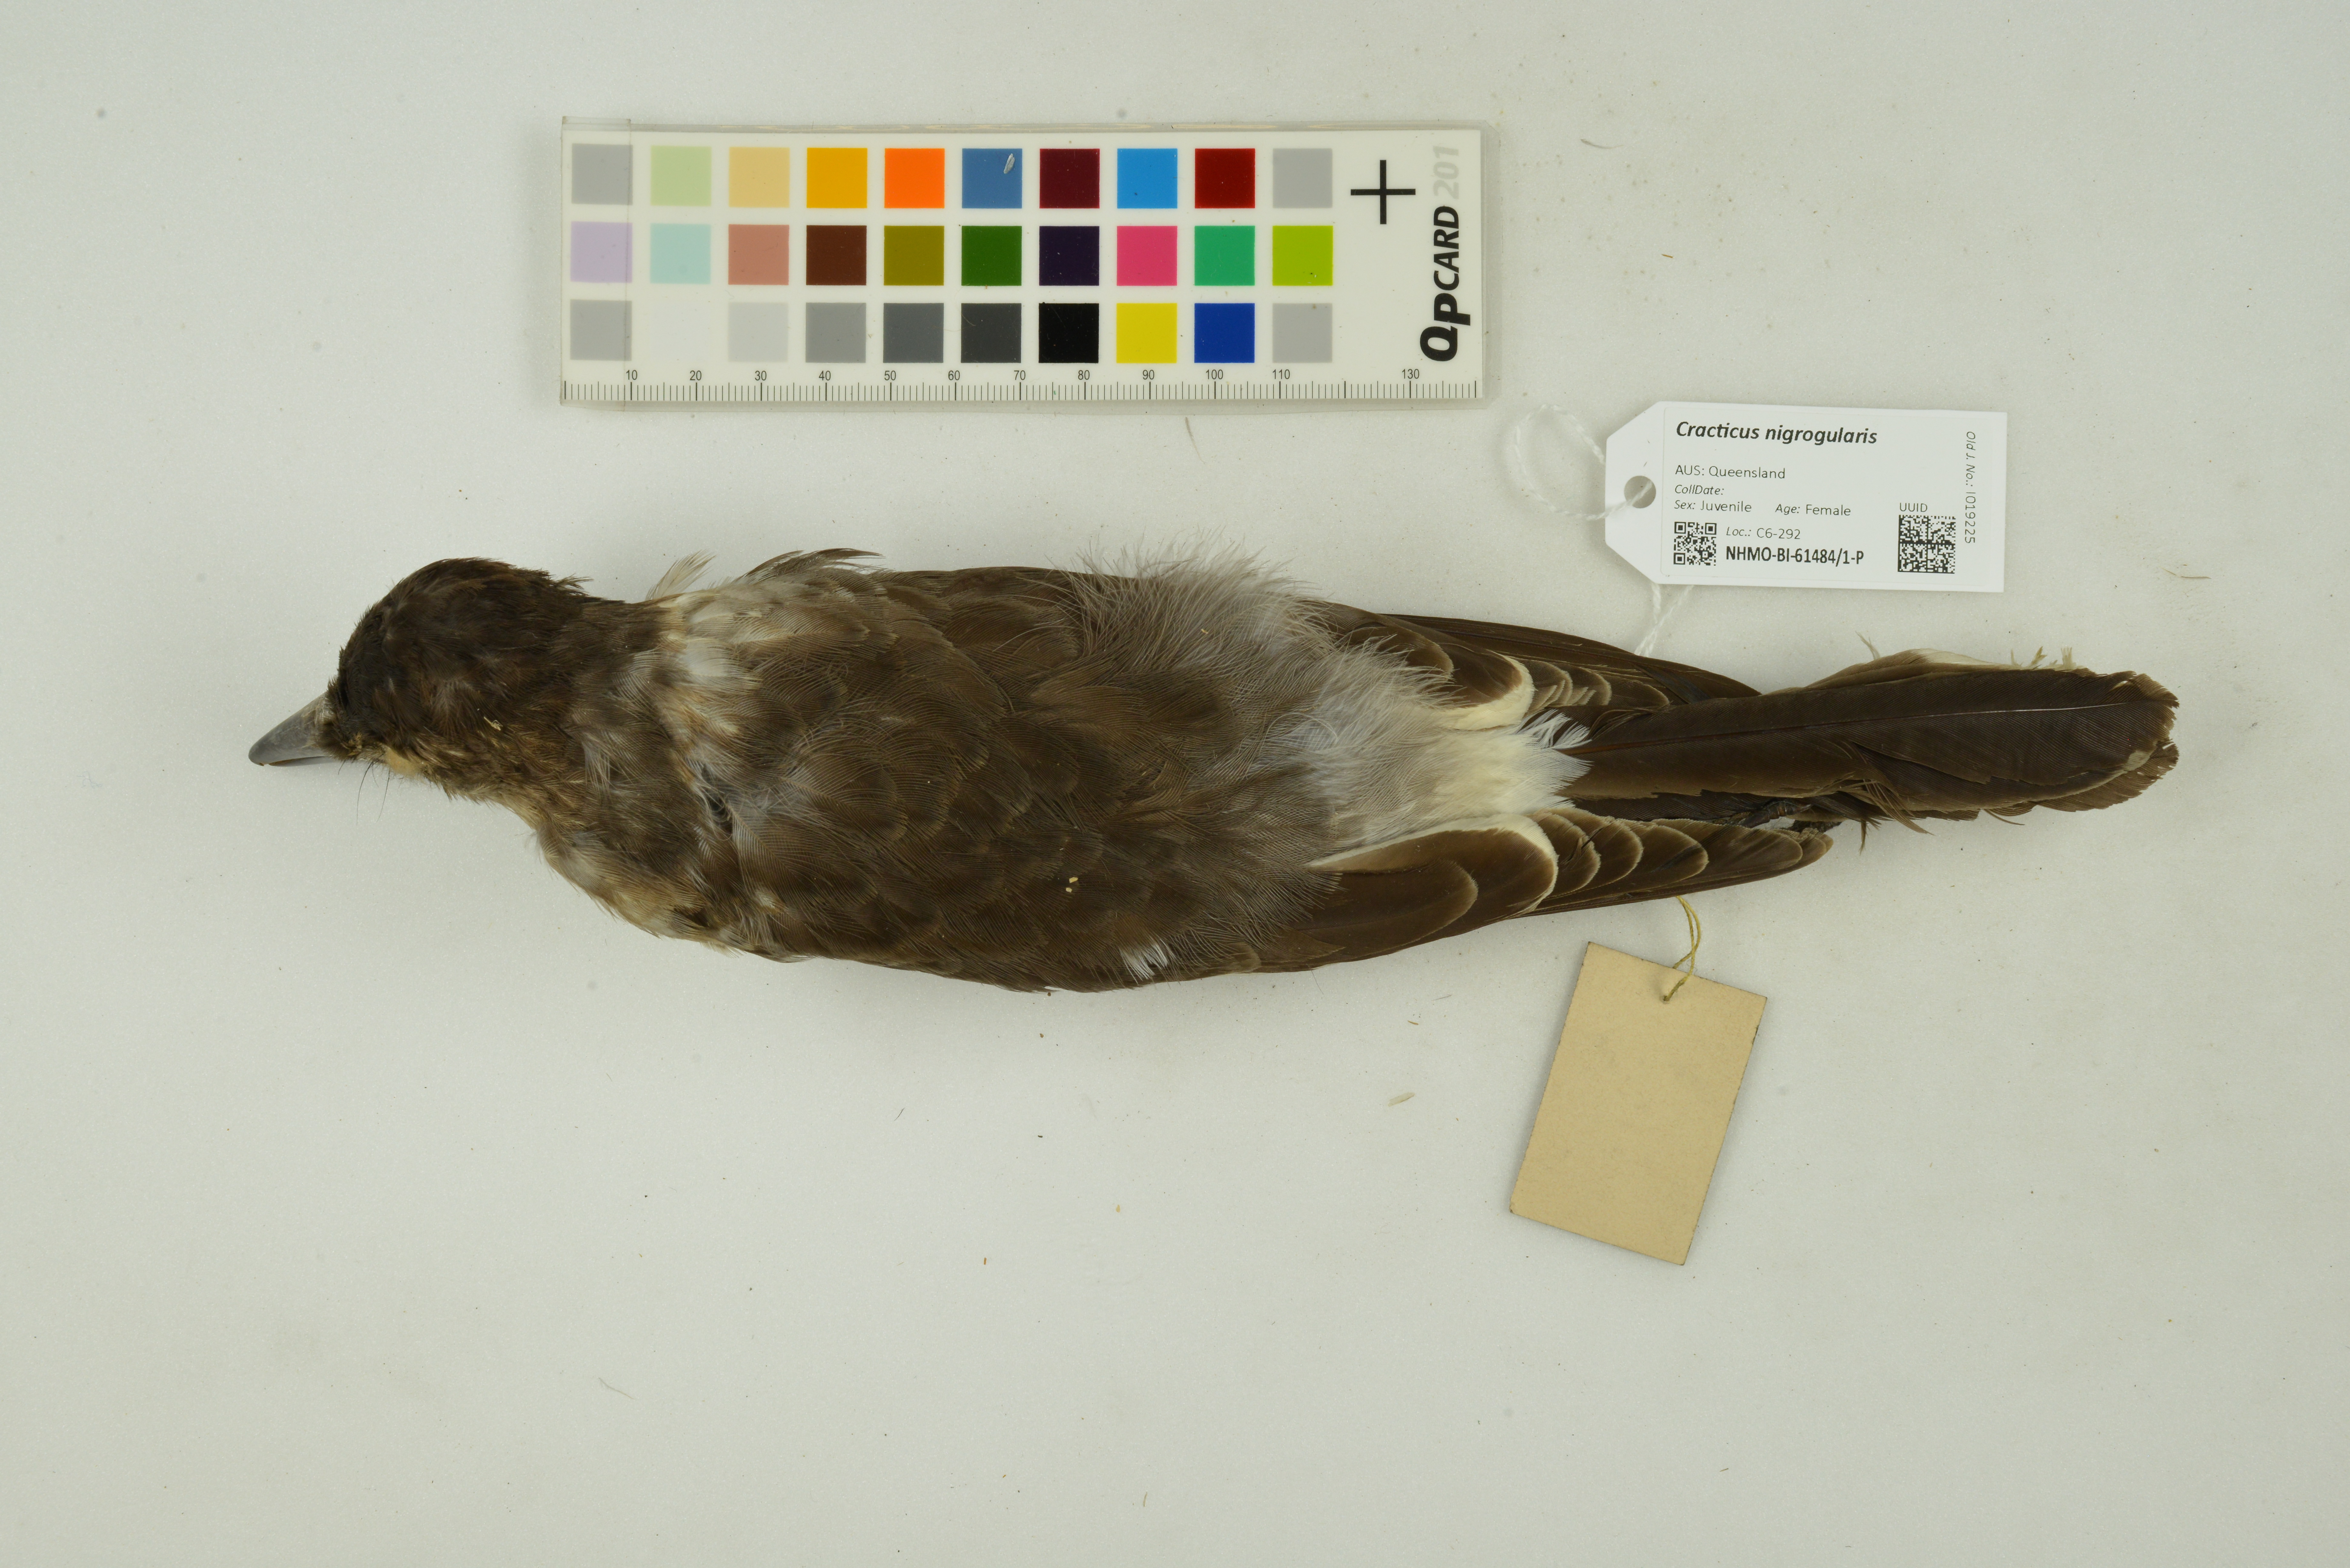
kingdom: Animalia
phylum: Chordata
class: Aves
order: Passeriformes
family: Cracticidae
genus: Cracticus
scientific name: Cracticus nigrogularis
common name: Pied butcherbird
